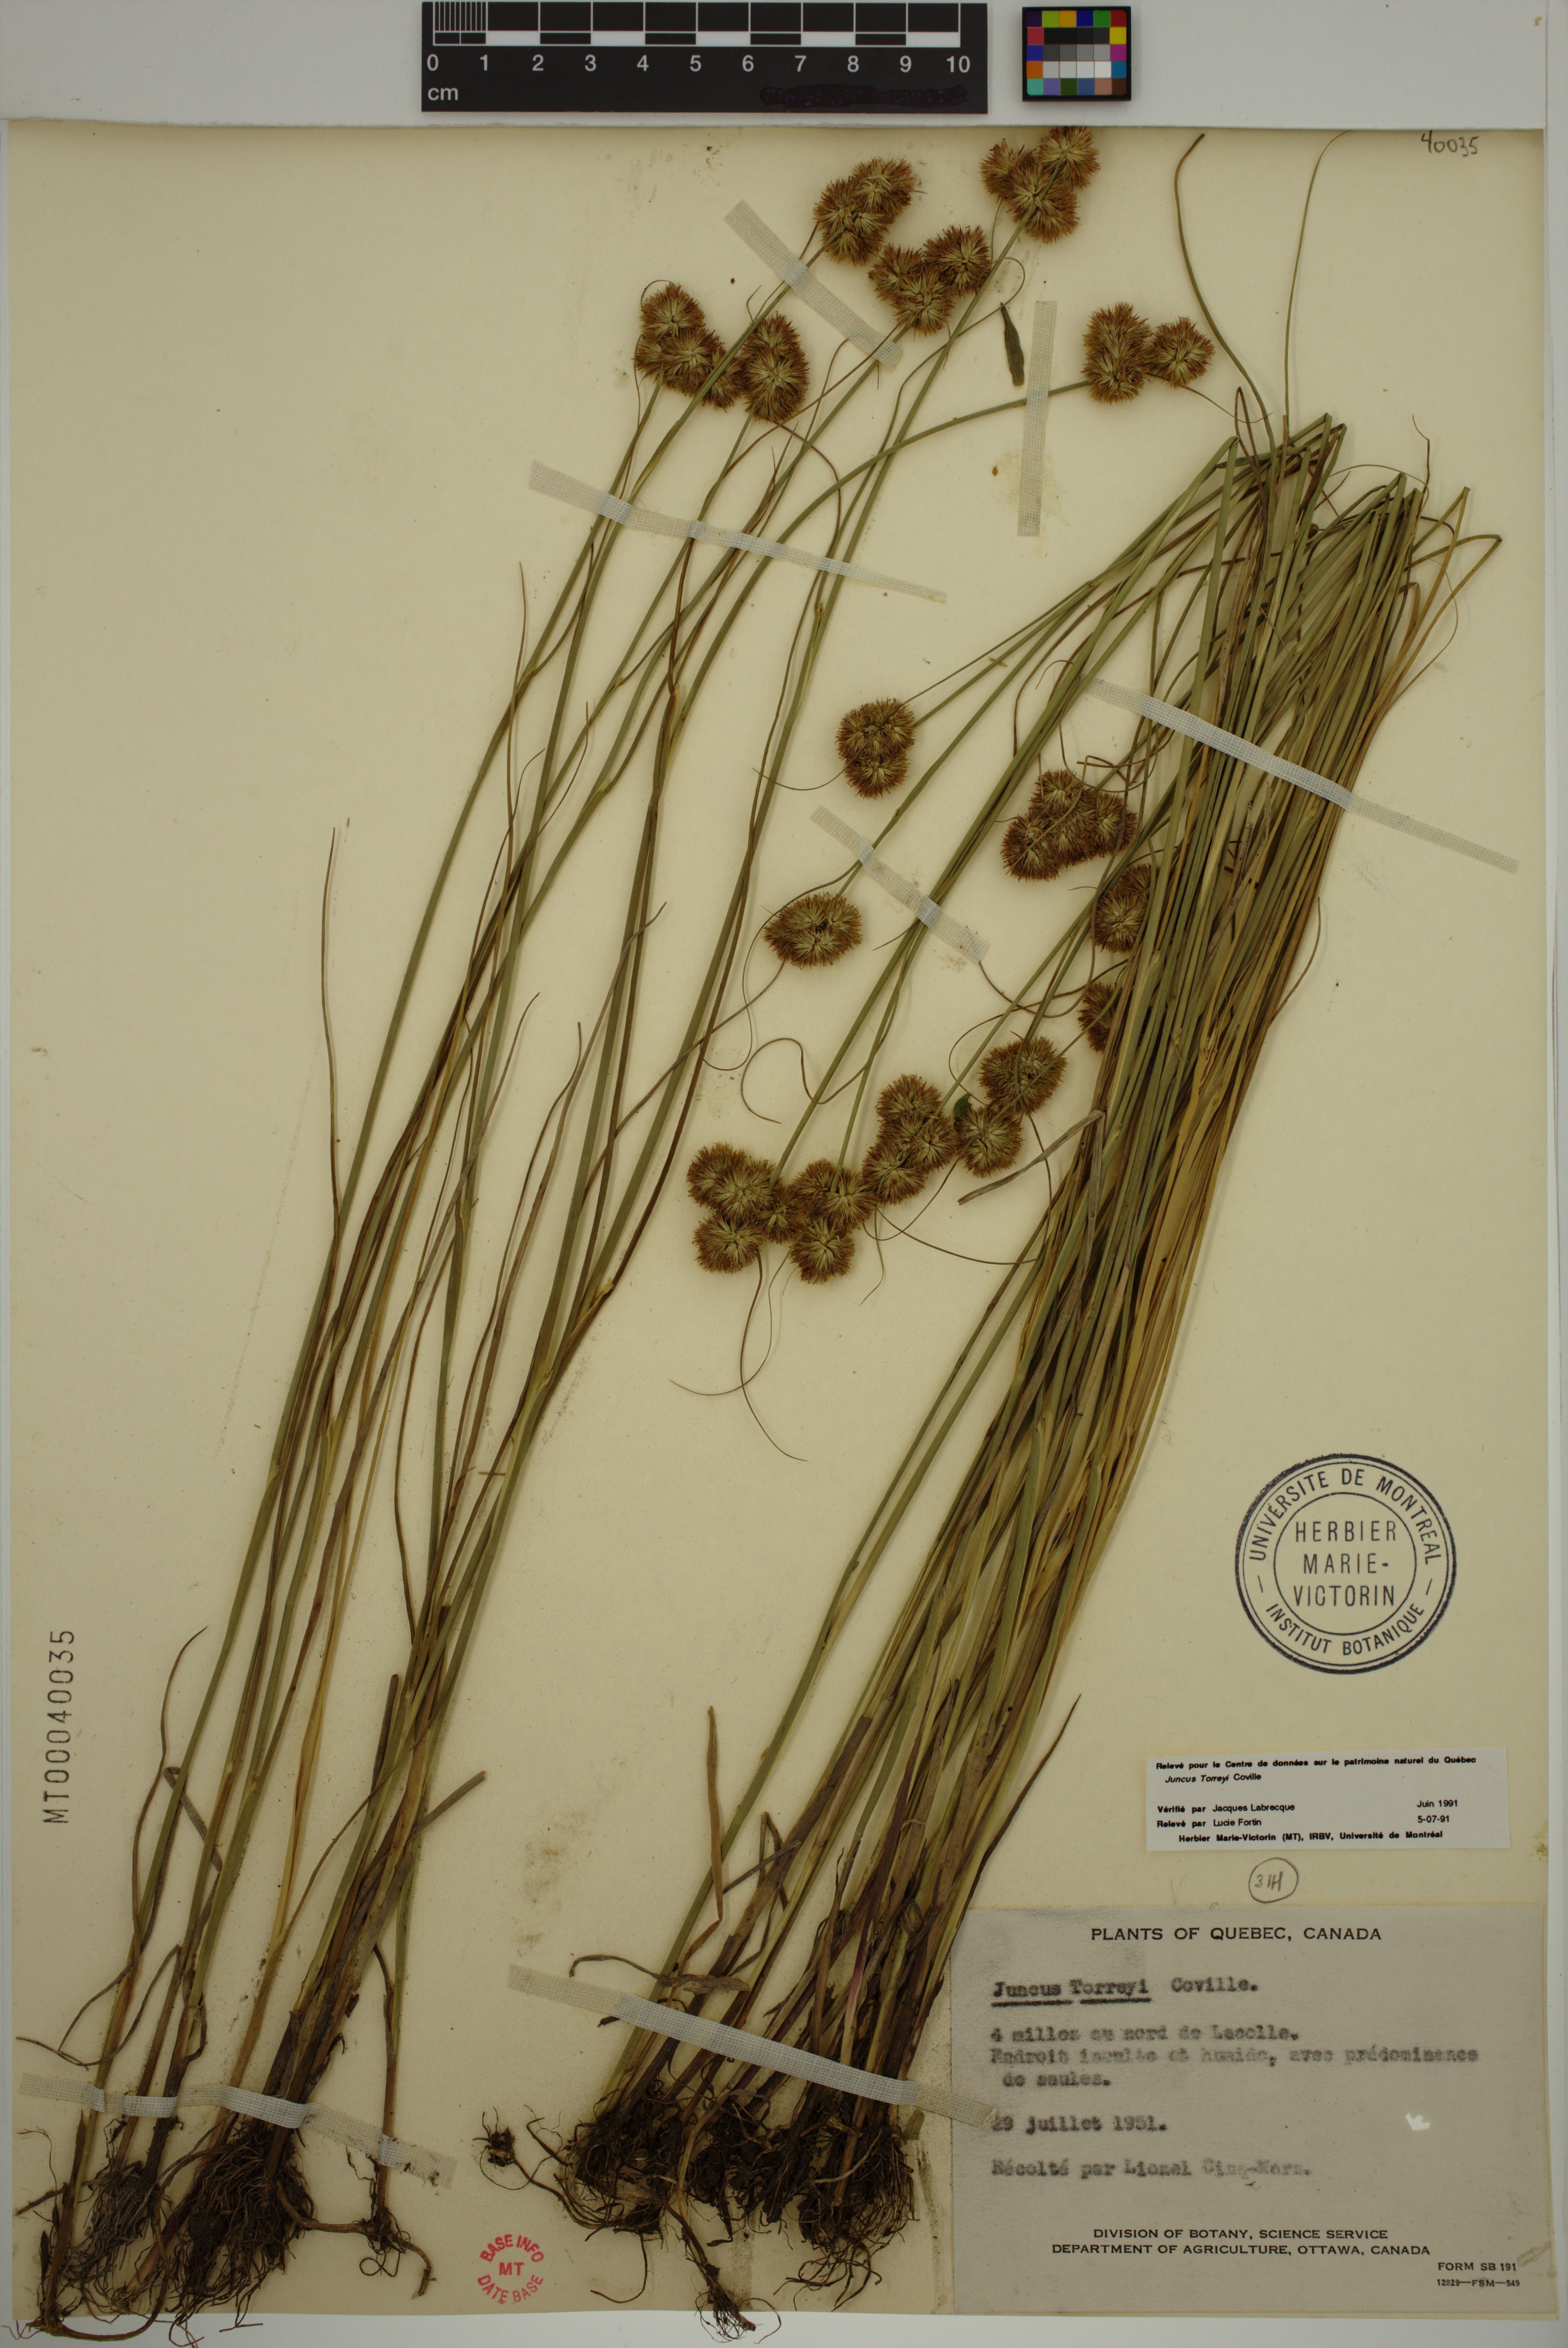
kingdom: Plantae
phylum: Tracheophyta
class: Liliopsida
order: Poales
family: Juncaceae
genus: Juncus
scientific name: Juncus torreyi
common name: Torrey's rush
